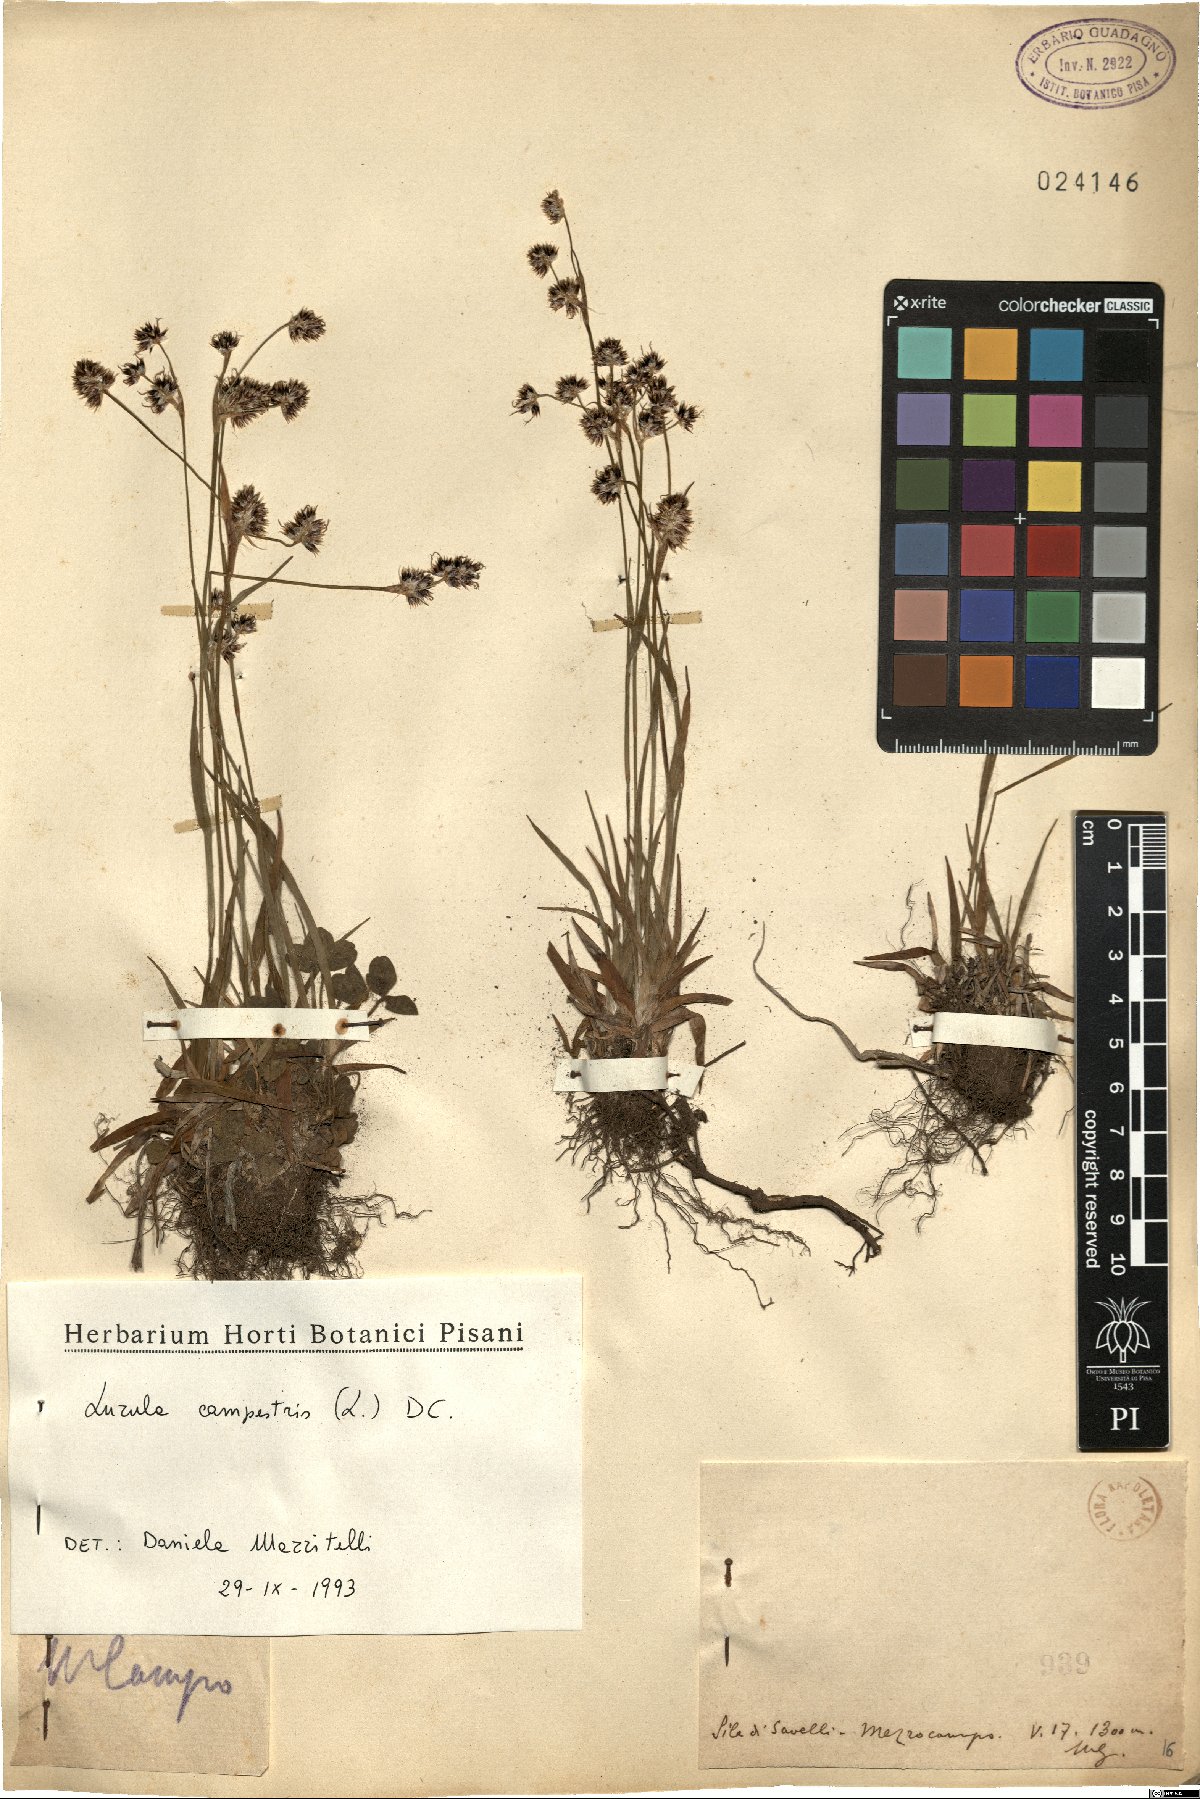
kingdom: Plantae
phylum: Tracheophyta
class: Liliopsida
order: Poales
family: Juncaceae
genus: Luzula
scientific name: Luzula campestris
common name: Field wood-rush
